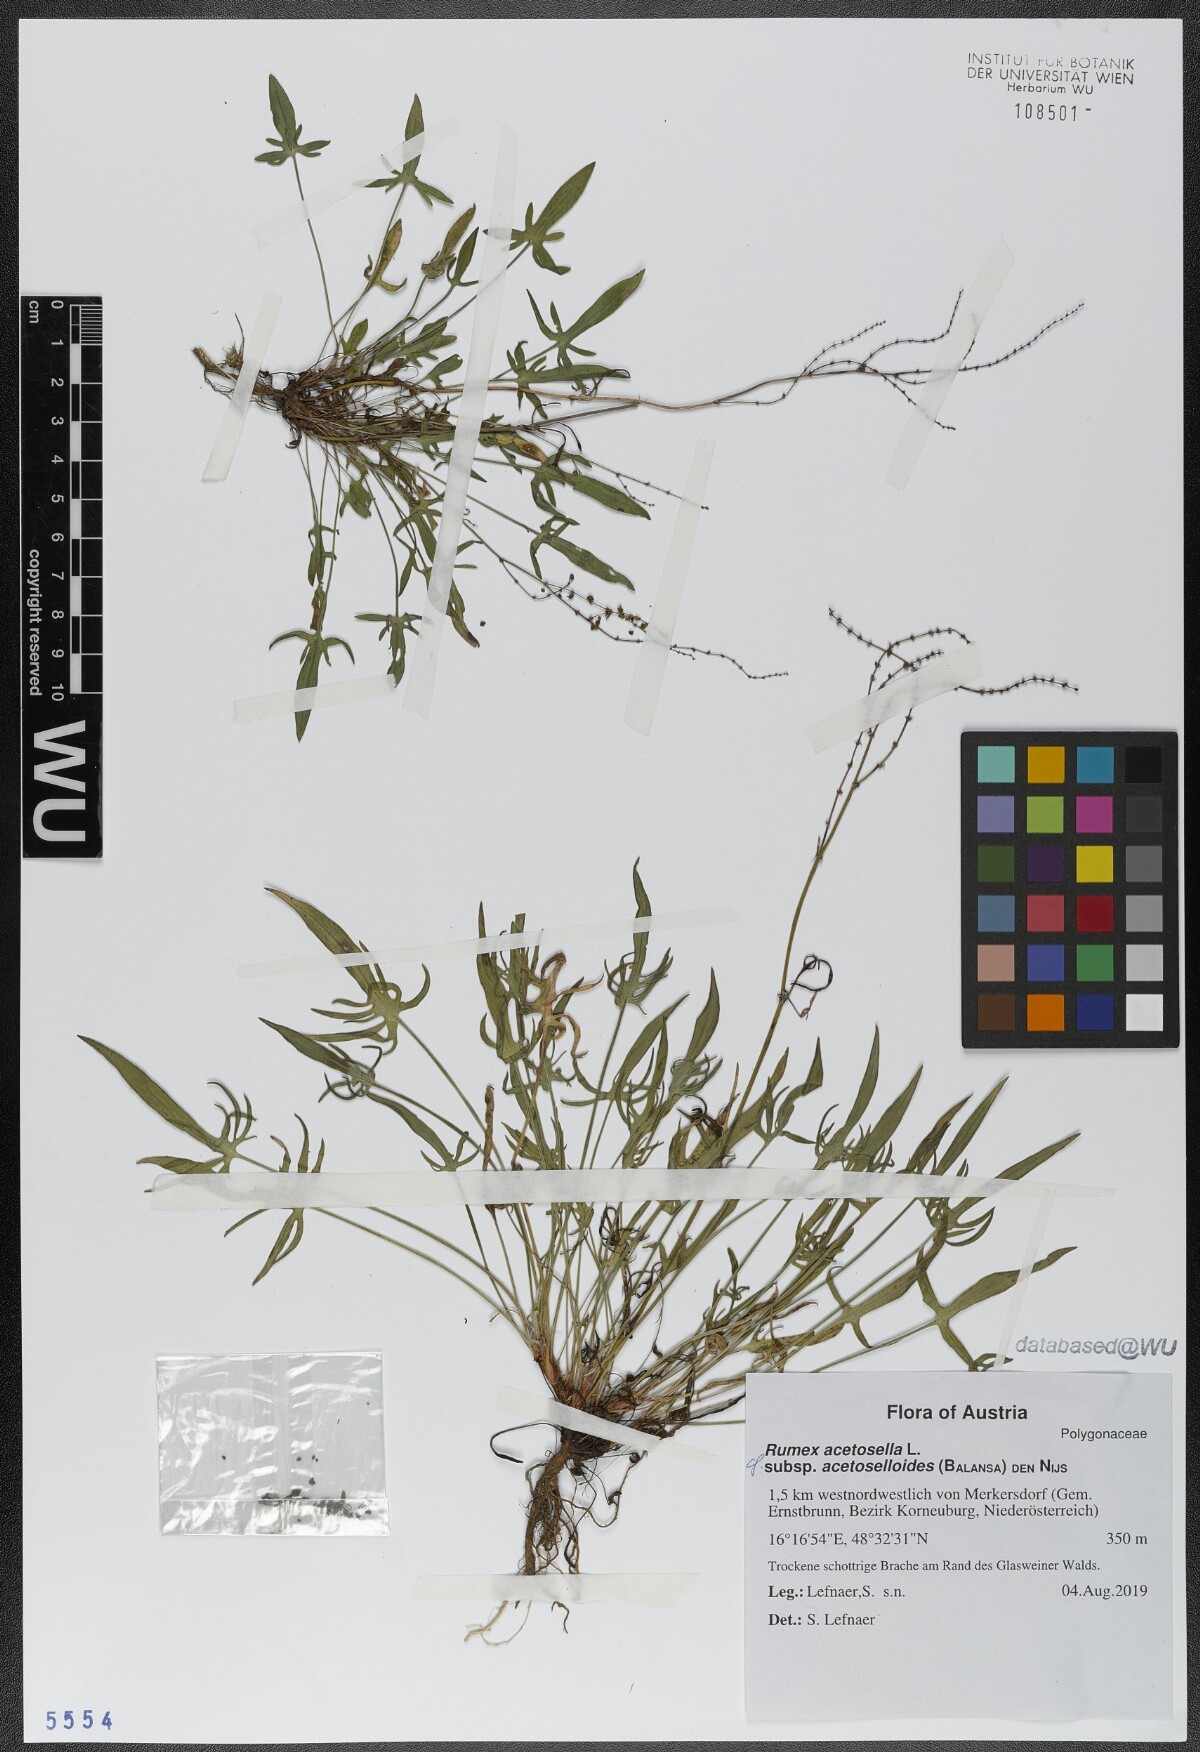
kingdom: Plantae
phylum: Tracheophyta
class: Magnoliopsida
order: Caryophyllales
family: Polygonaceae
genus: Rumex
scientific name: Rumex acetosella
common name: Common sheep sorrel
